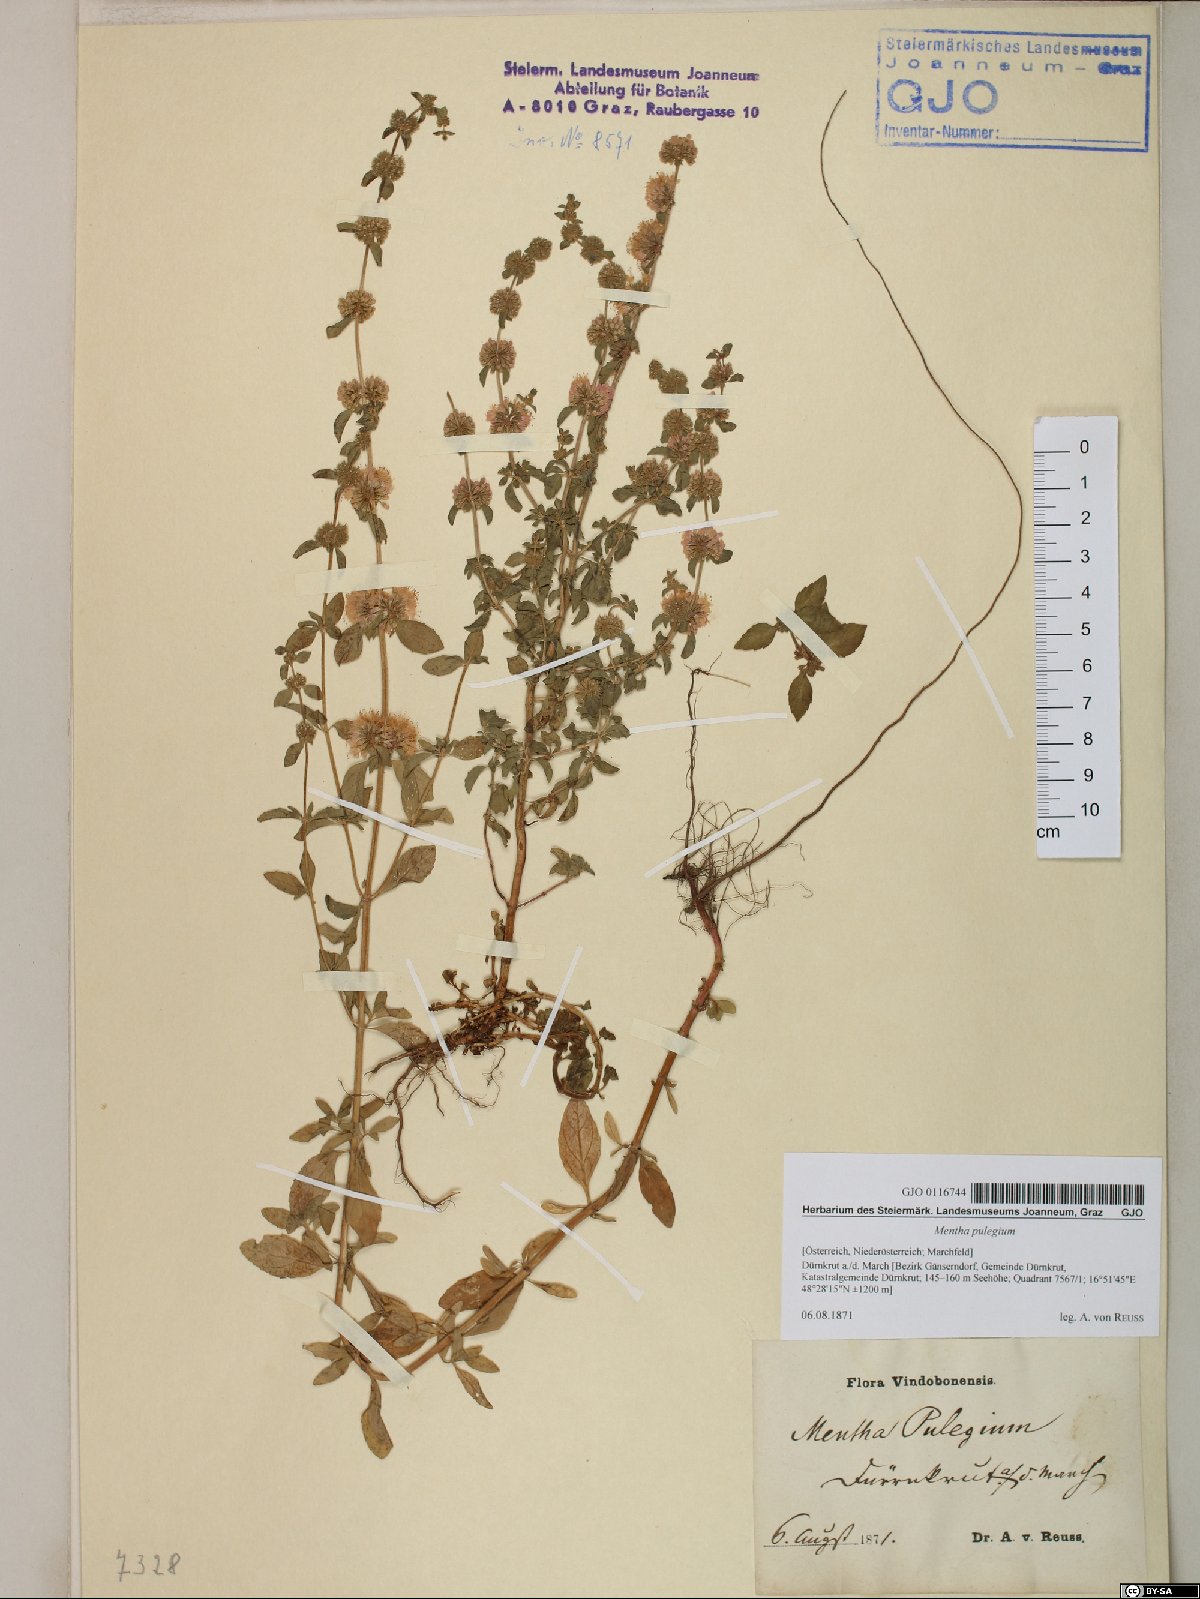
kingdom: Plantae
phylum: Tracheophyta
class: Magnoliopsida
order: Lamiales
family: Lamiaceae
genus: Mentha
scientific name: Mentha pulegium
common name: Pennyroyal
